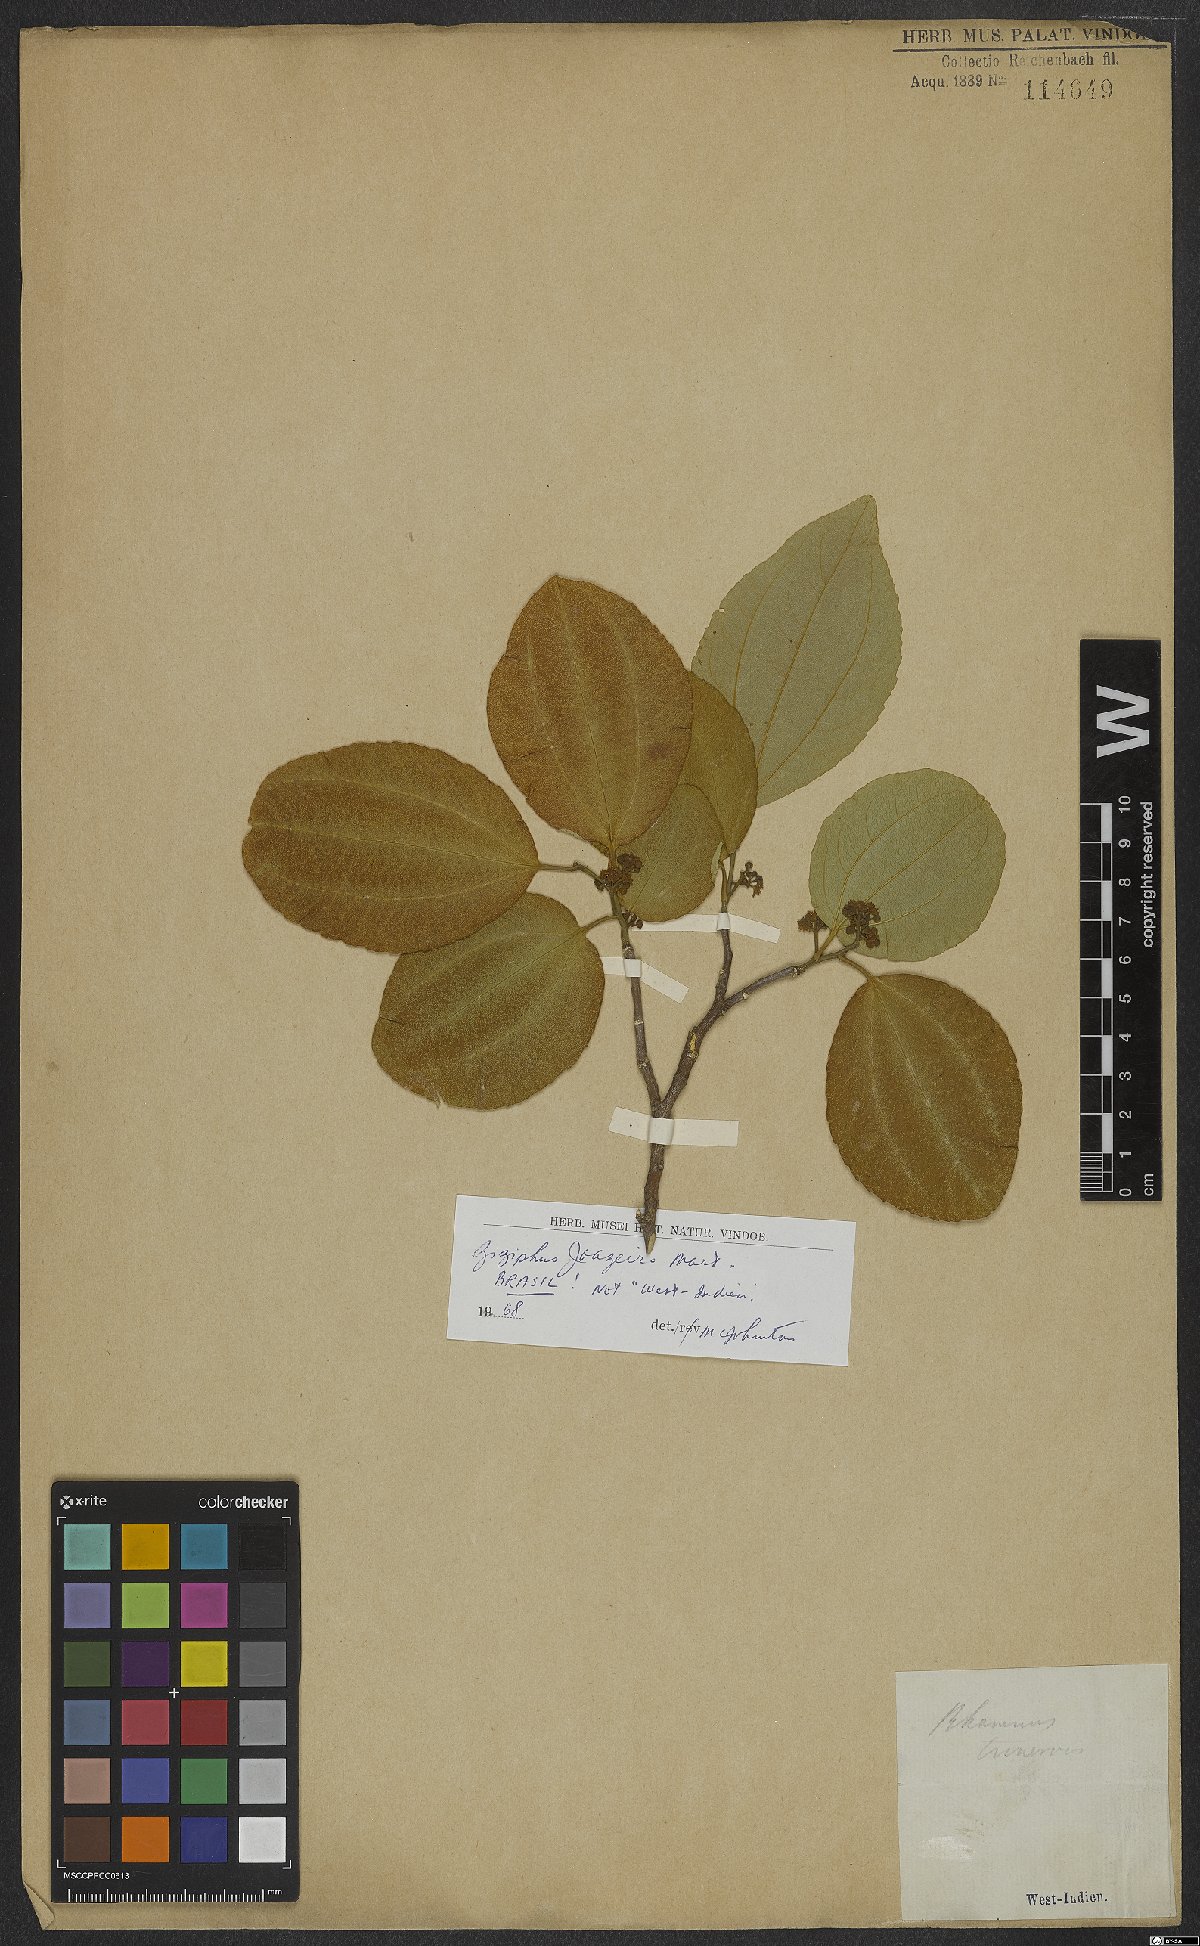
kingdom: Plantae
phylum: Tracheophyta
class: Magnoliopsida
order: Rosales
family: Rhamnaceae
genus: Sarcomphalus
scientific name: Sarcomphalus joazeiro
